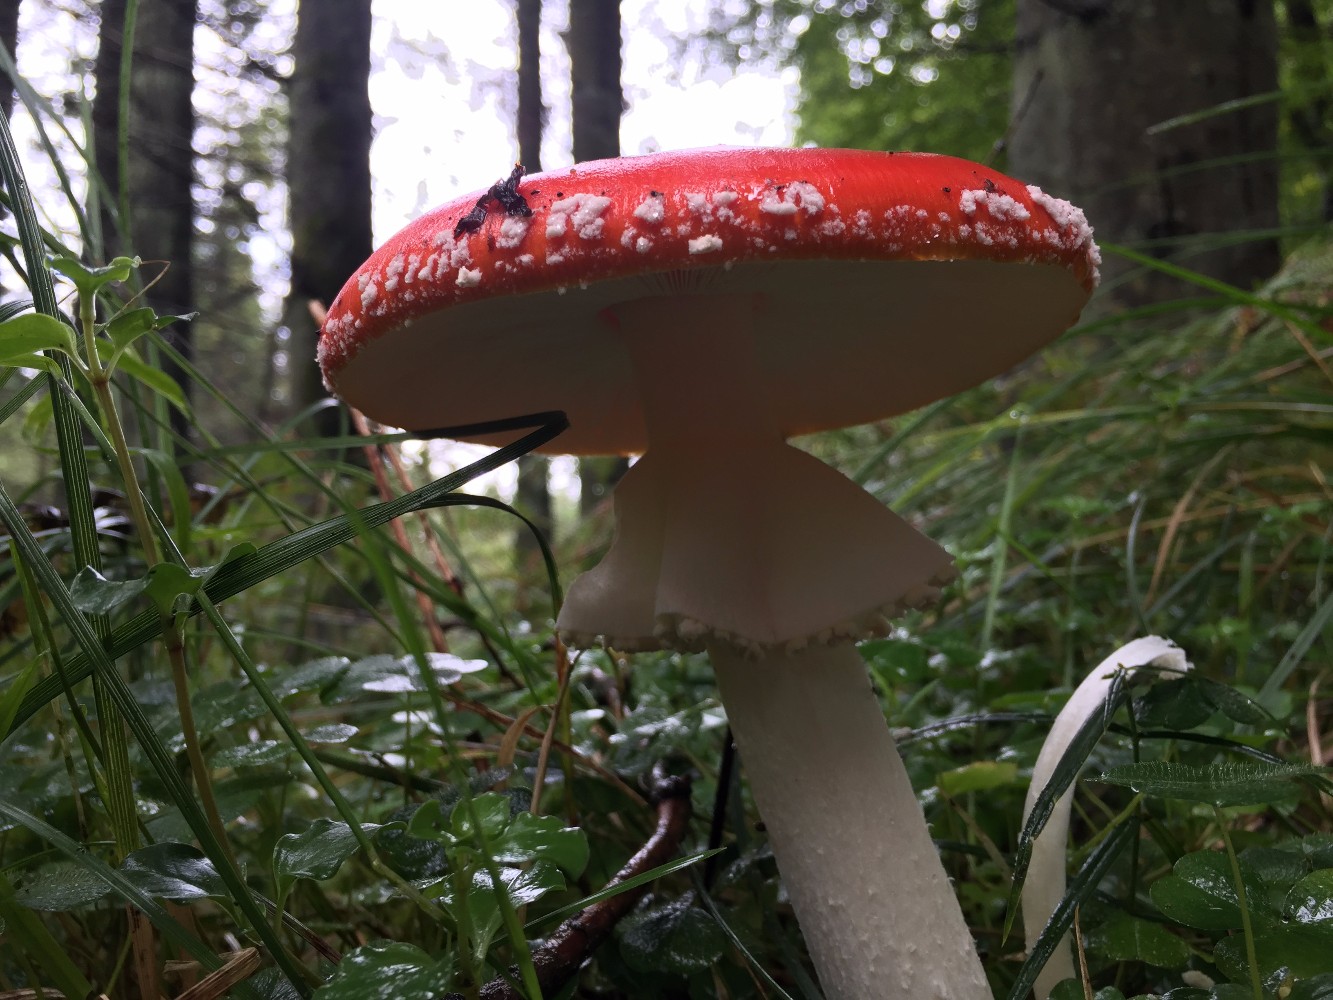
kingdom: Fungi
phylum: Basidiomycota
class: Agaricomycetes
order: Agaricales
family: Amanitaceae
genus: Amanita
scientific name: Amanita muscaria
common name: rød fluesvamp
